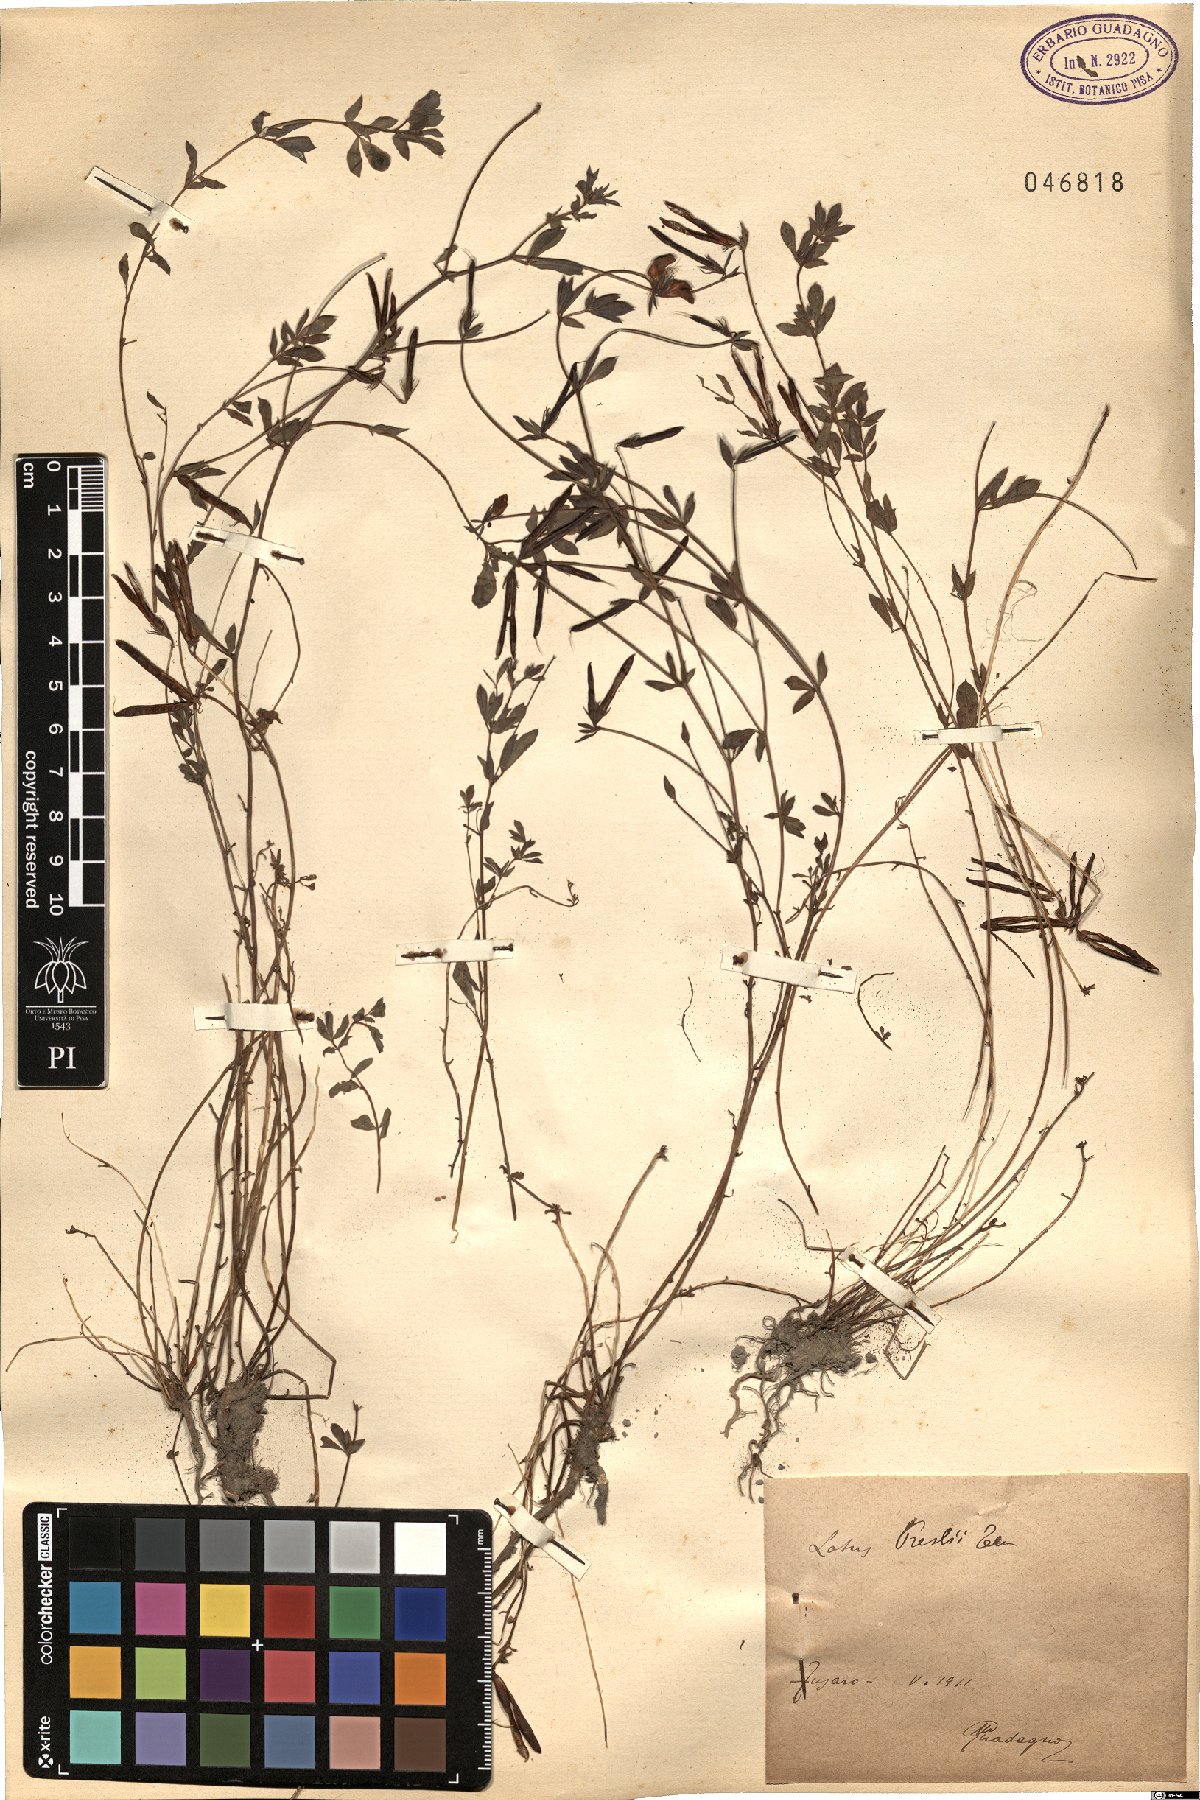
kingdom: Plantae
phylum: Tracheophyta
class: Magnoliopsida
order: Fabales
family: Fabaceae
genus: Lotus
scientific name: Lotus corniculatus
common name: Common bird's-foot-trefoil
